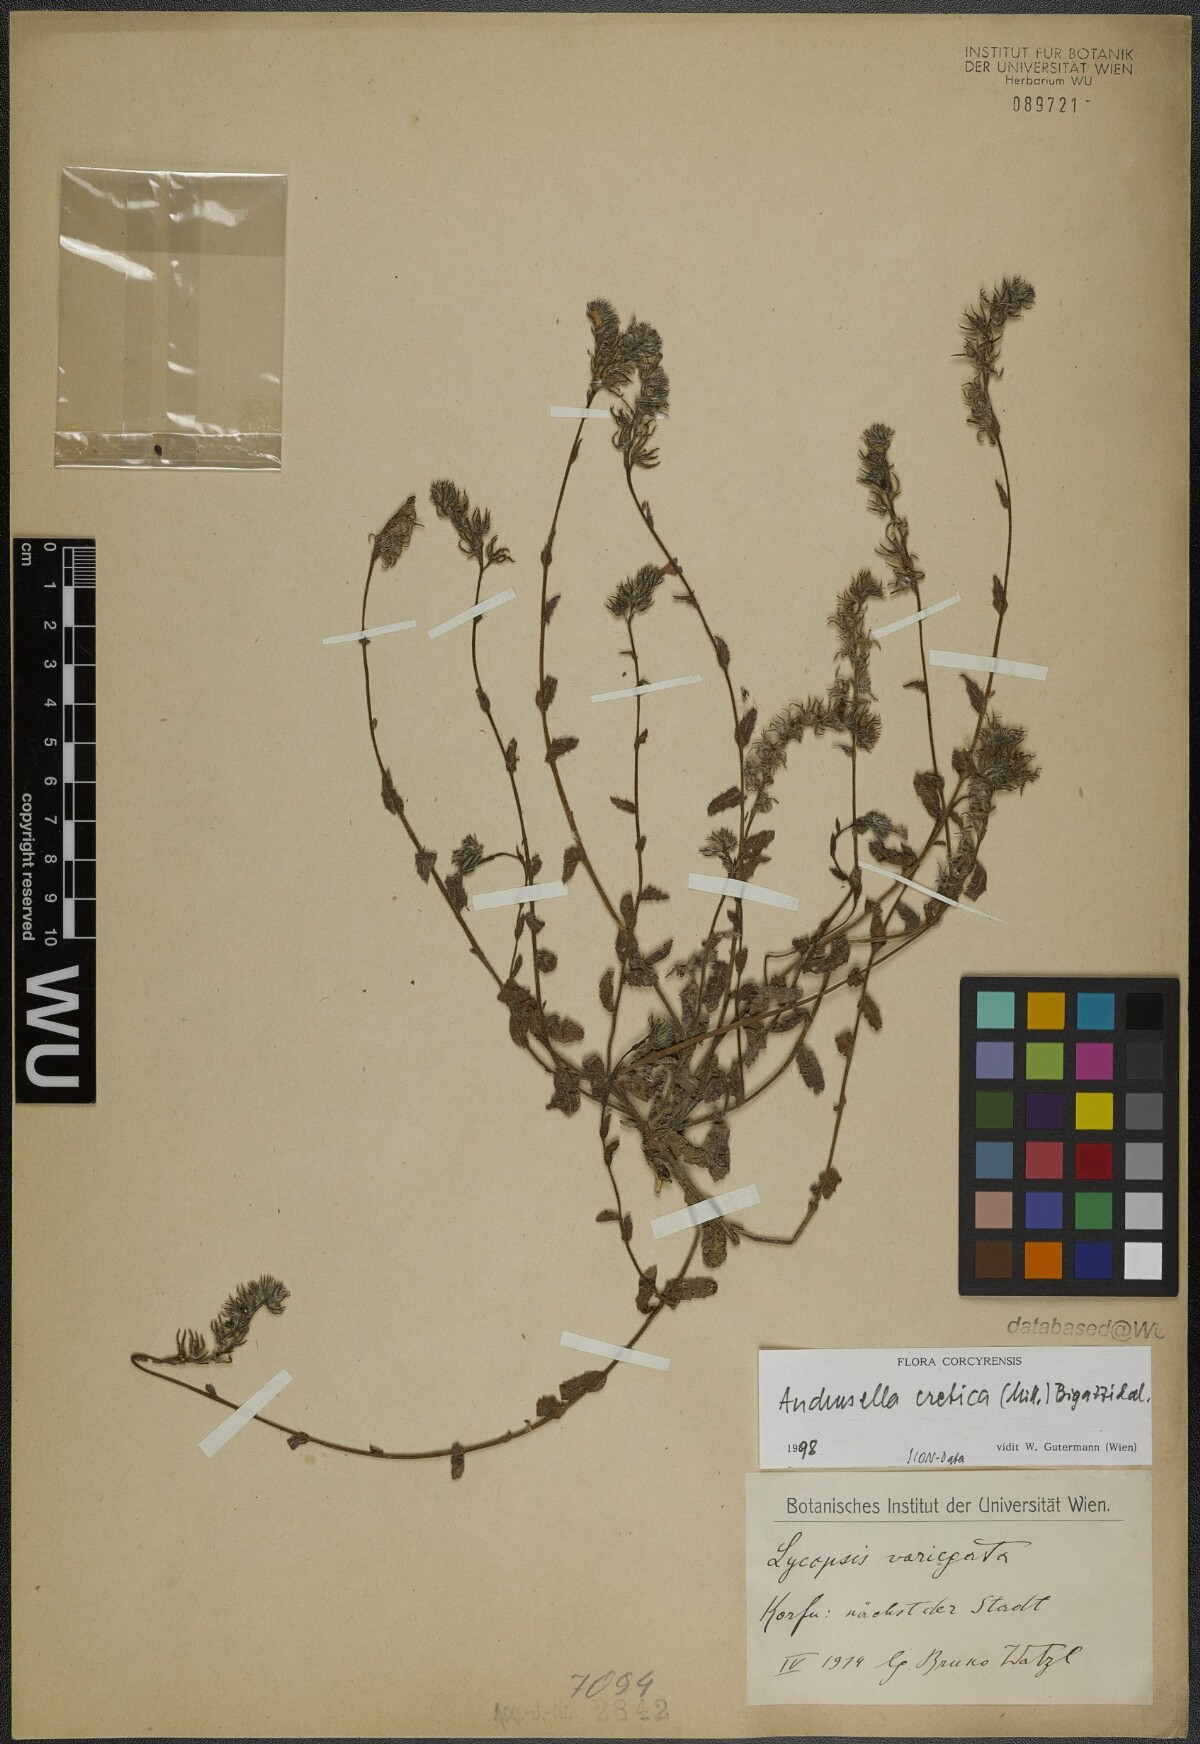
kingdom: Plantae
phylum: Tracheophyta
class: Magnoliopsida
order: Boraginales
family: Boraginaceae
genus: Anchusella
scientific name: Anchusella cretica
